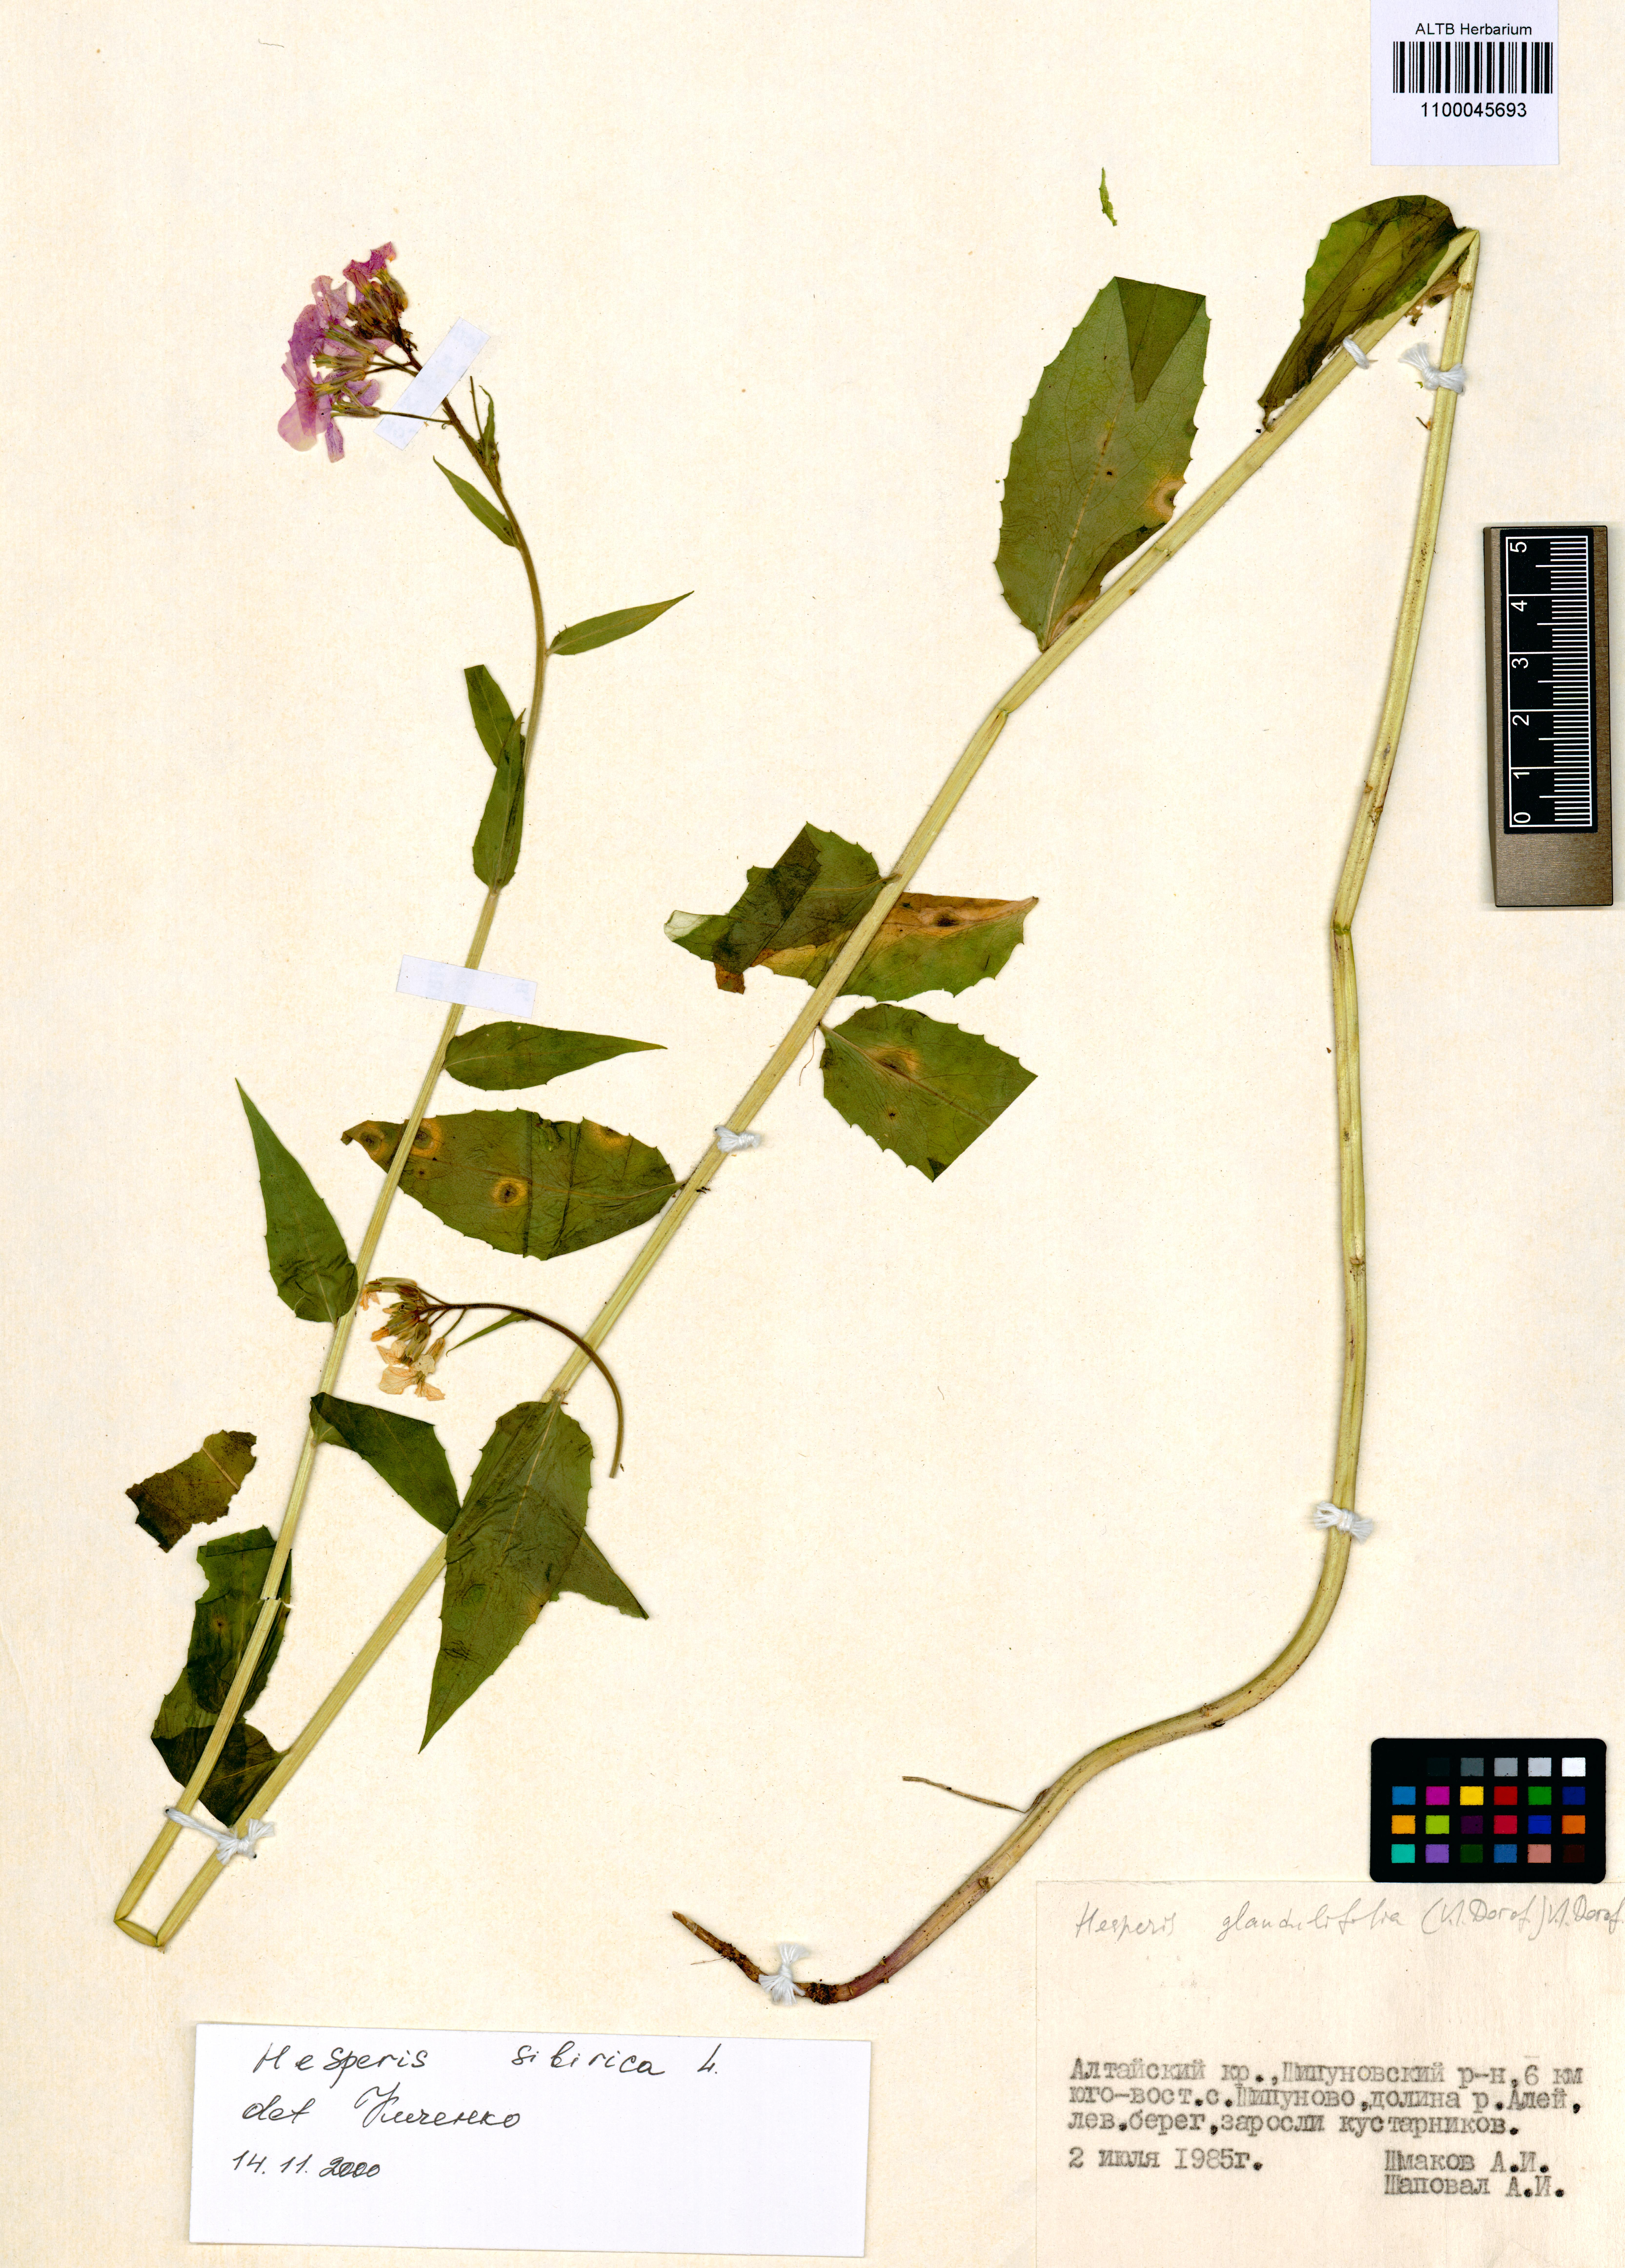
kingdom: Plantae
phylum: Tracheophyta
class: Magnoliopsida
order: Brassicales
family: Brassicaceae
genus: Hesperis
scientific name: Hesperis sibirica
